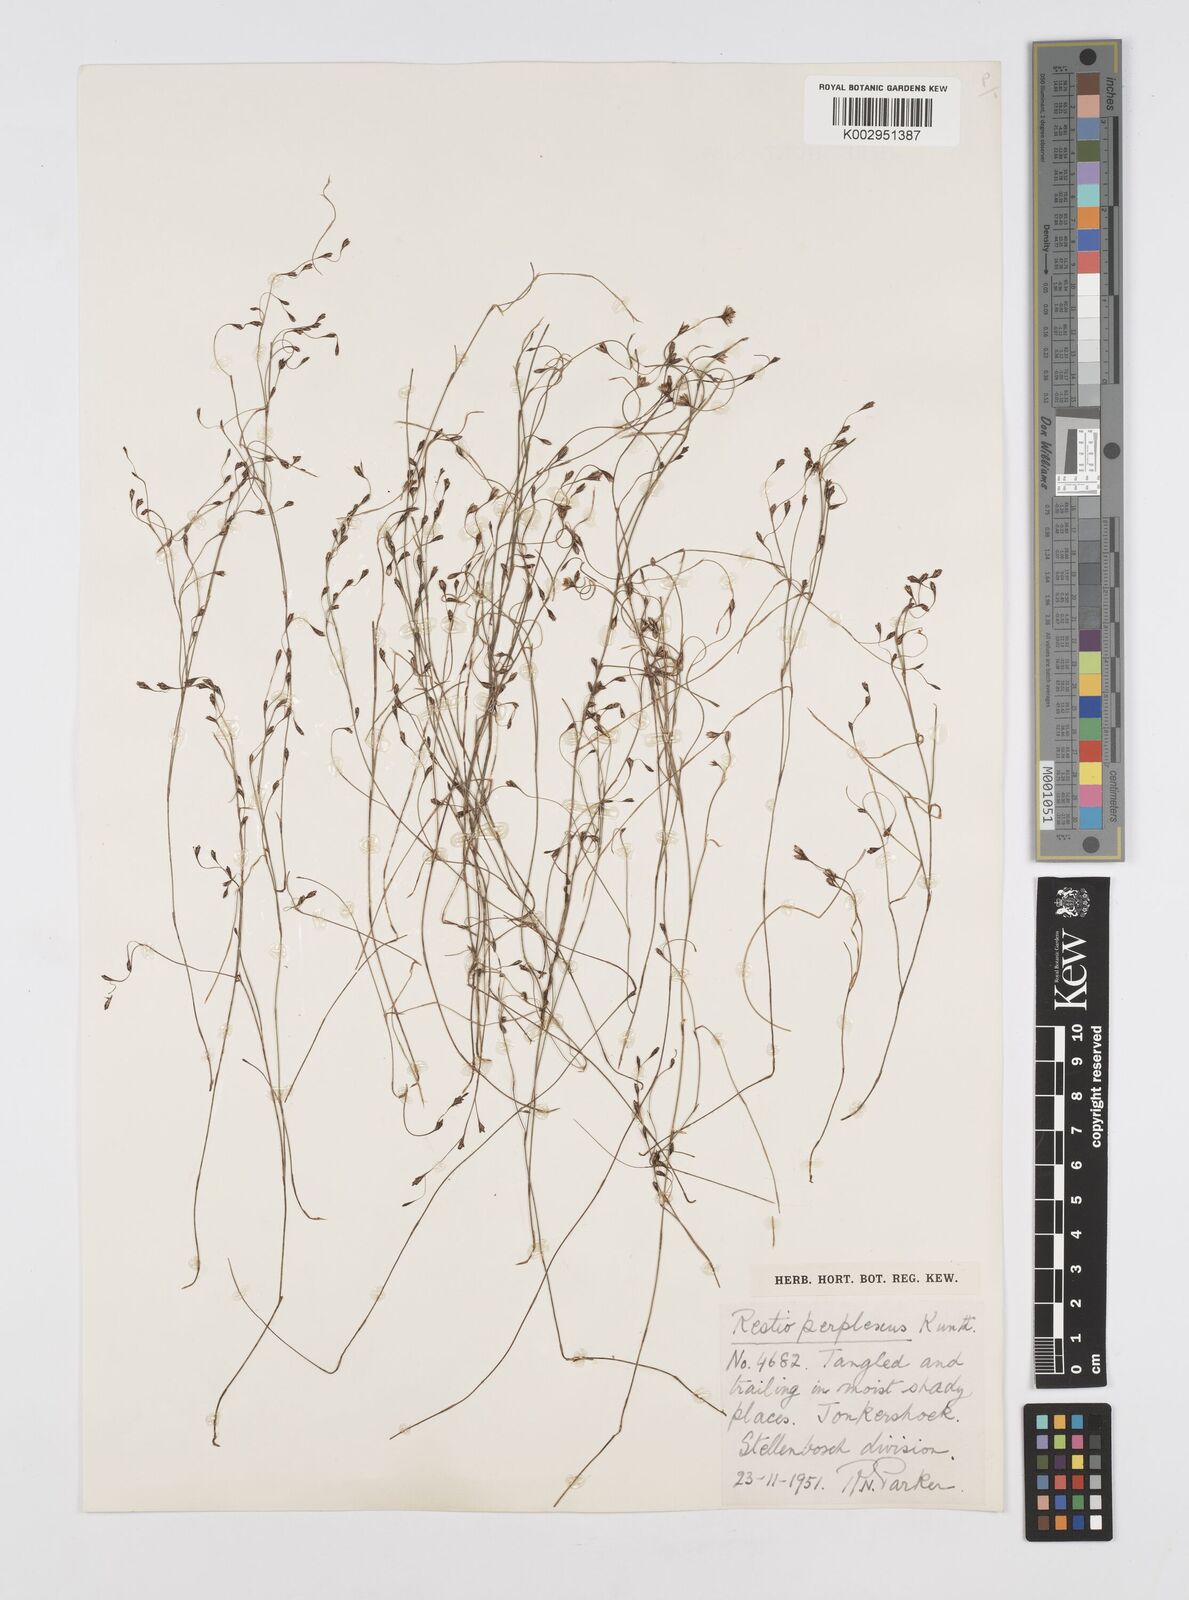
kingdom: Plantae
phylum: Tracheophyta
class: Liliopsida
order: Poales
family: Restionaceae
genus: Restio
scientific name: Restio perplexus
